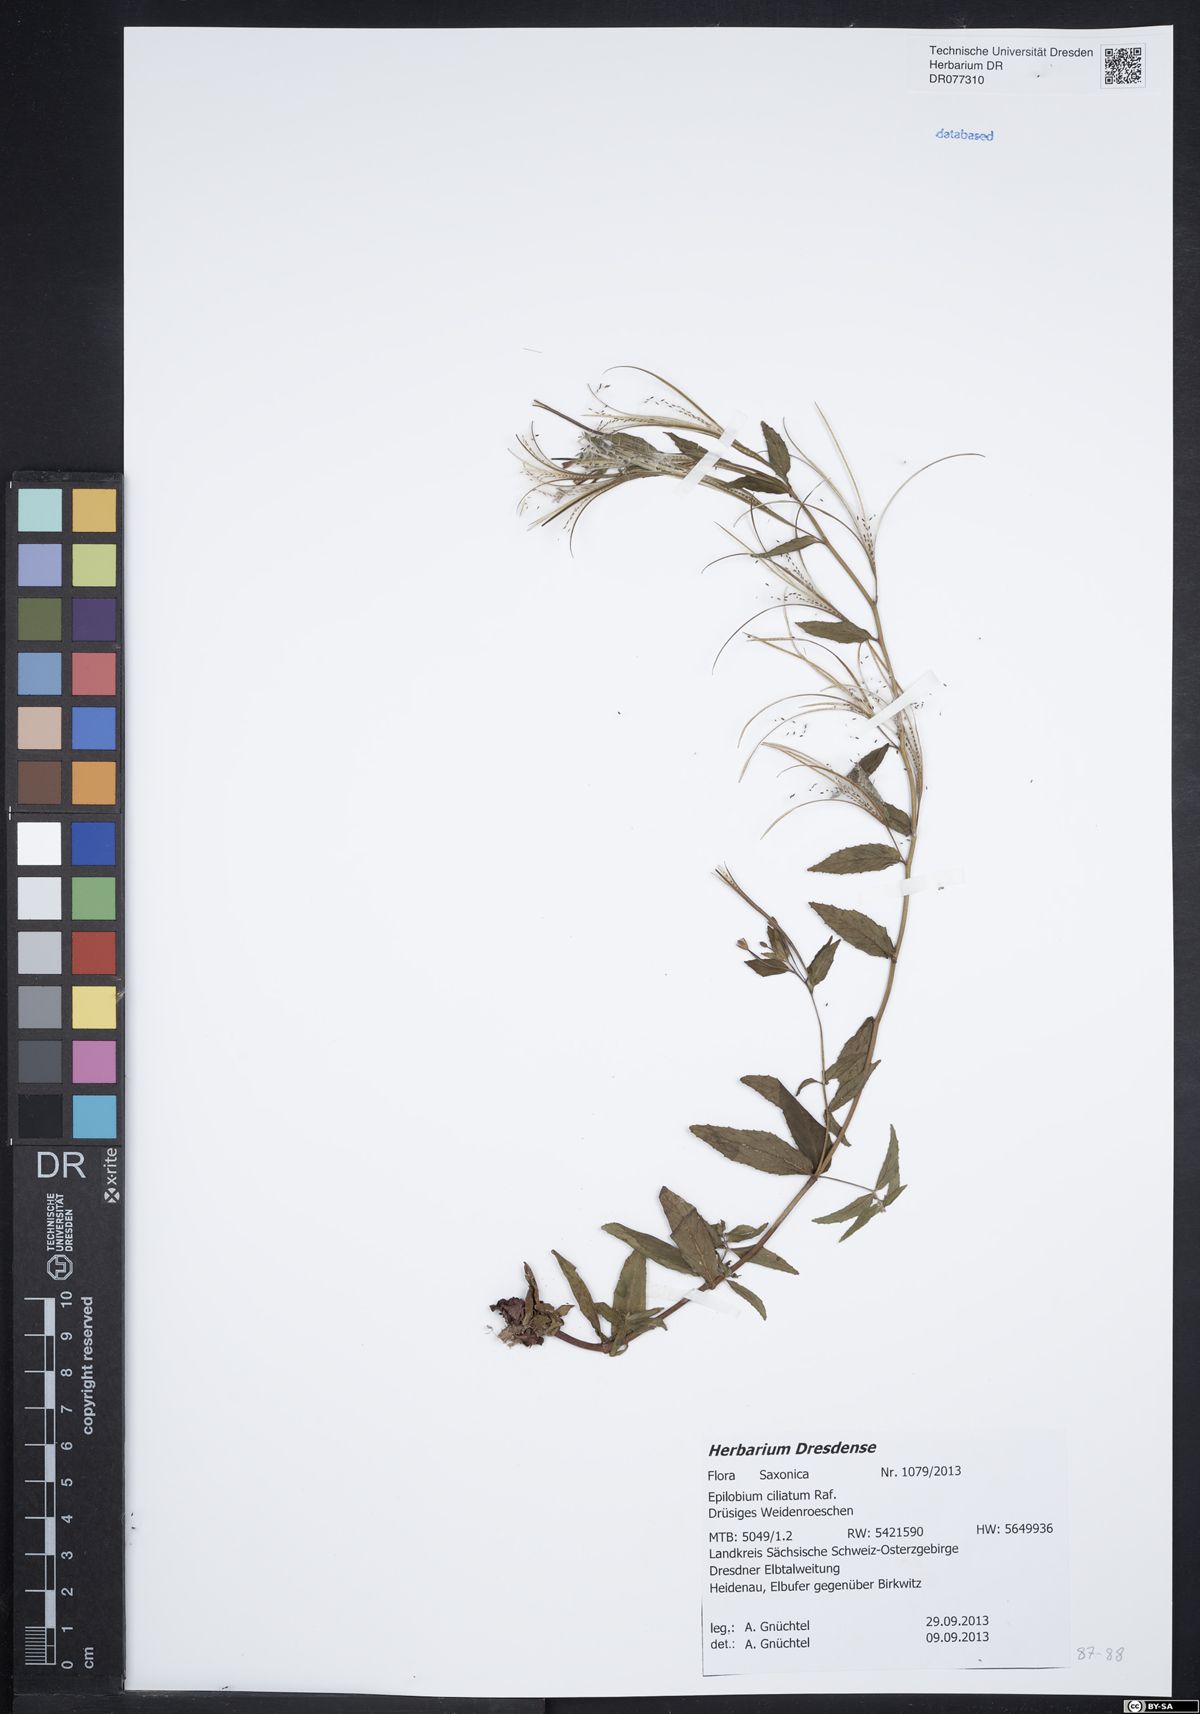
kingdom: Plantae
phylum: Tracheophyta
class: Magnoliopsida
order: Myrtales
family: Onagraceae
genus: Epilobium
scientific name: Epilobium ciliatum
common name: American willowherb
